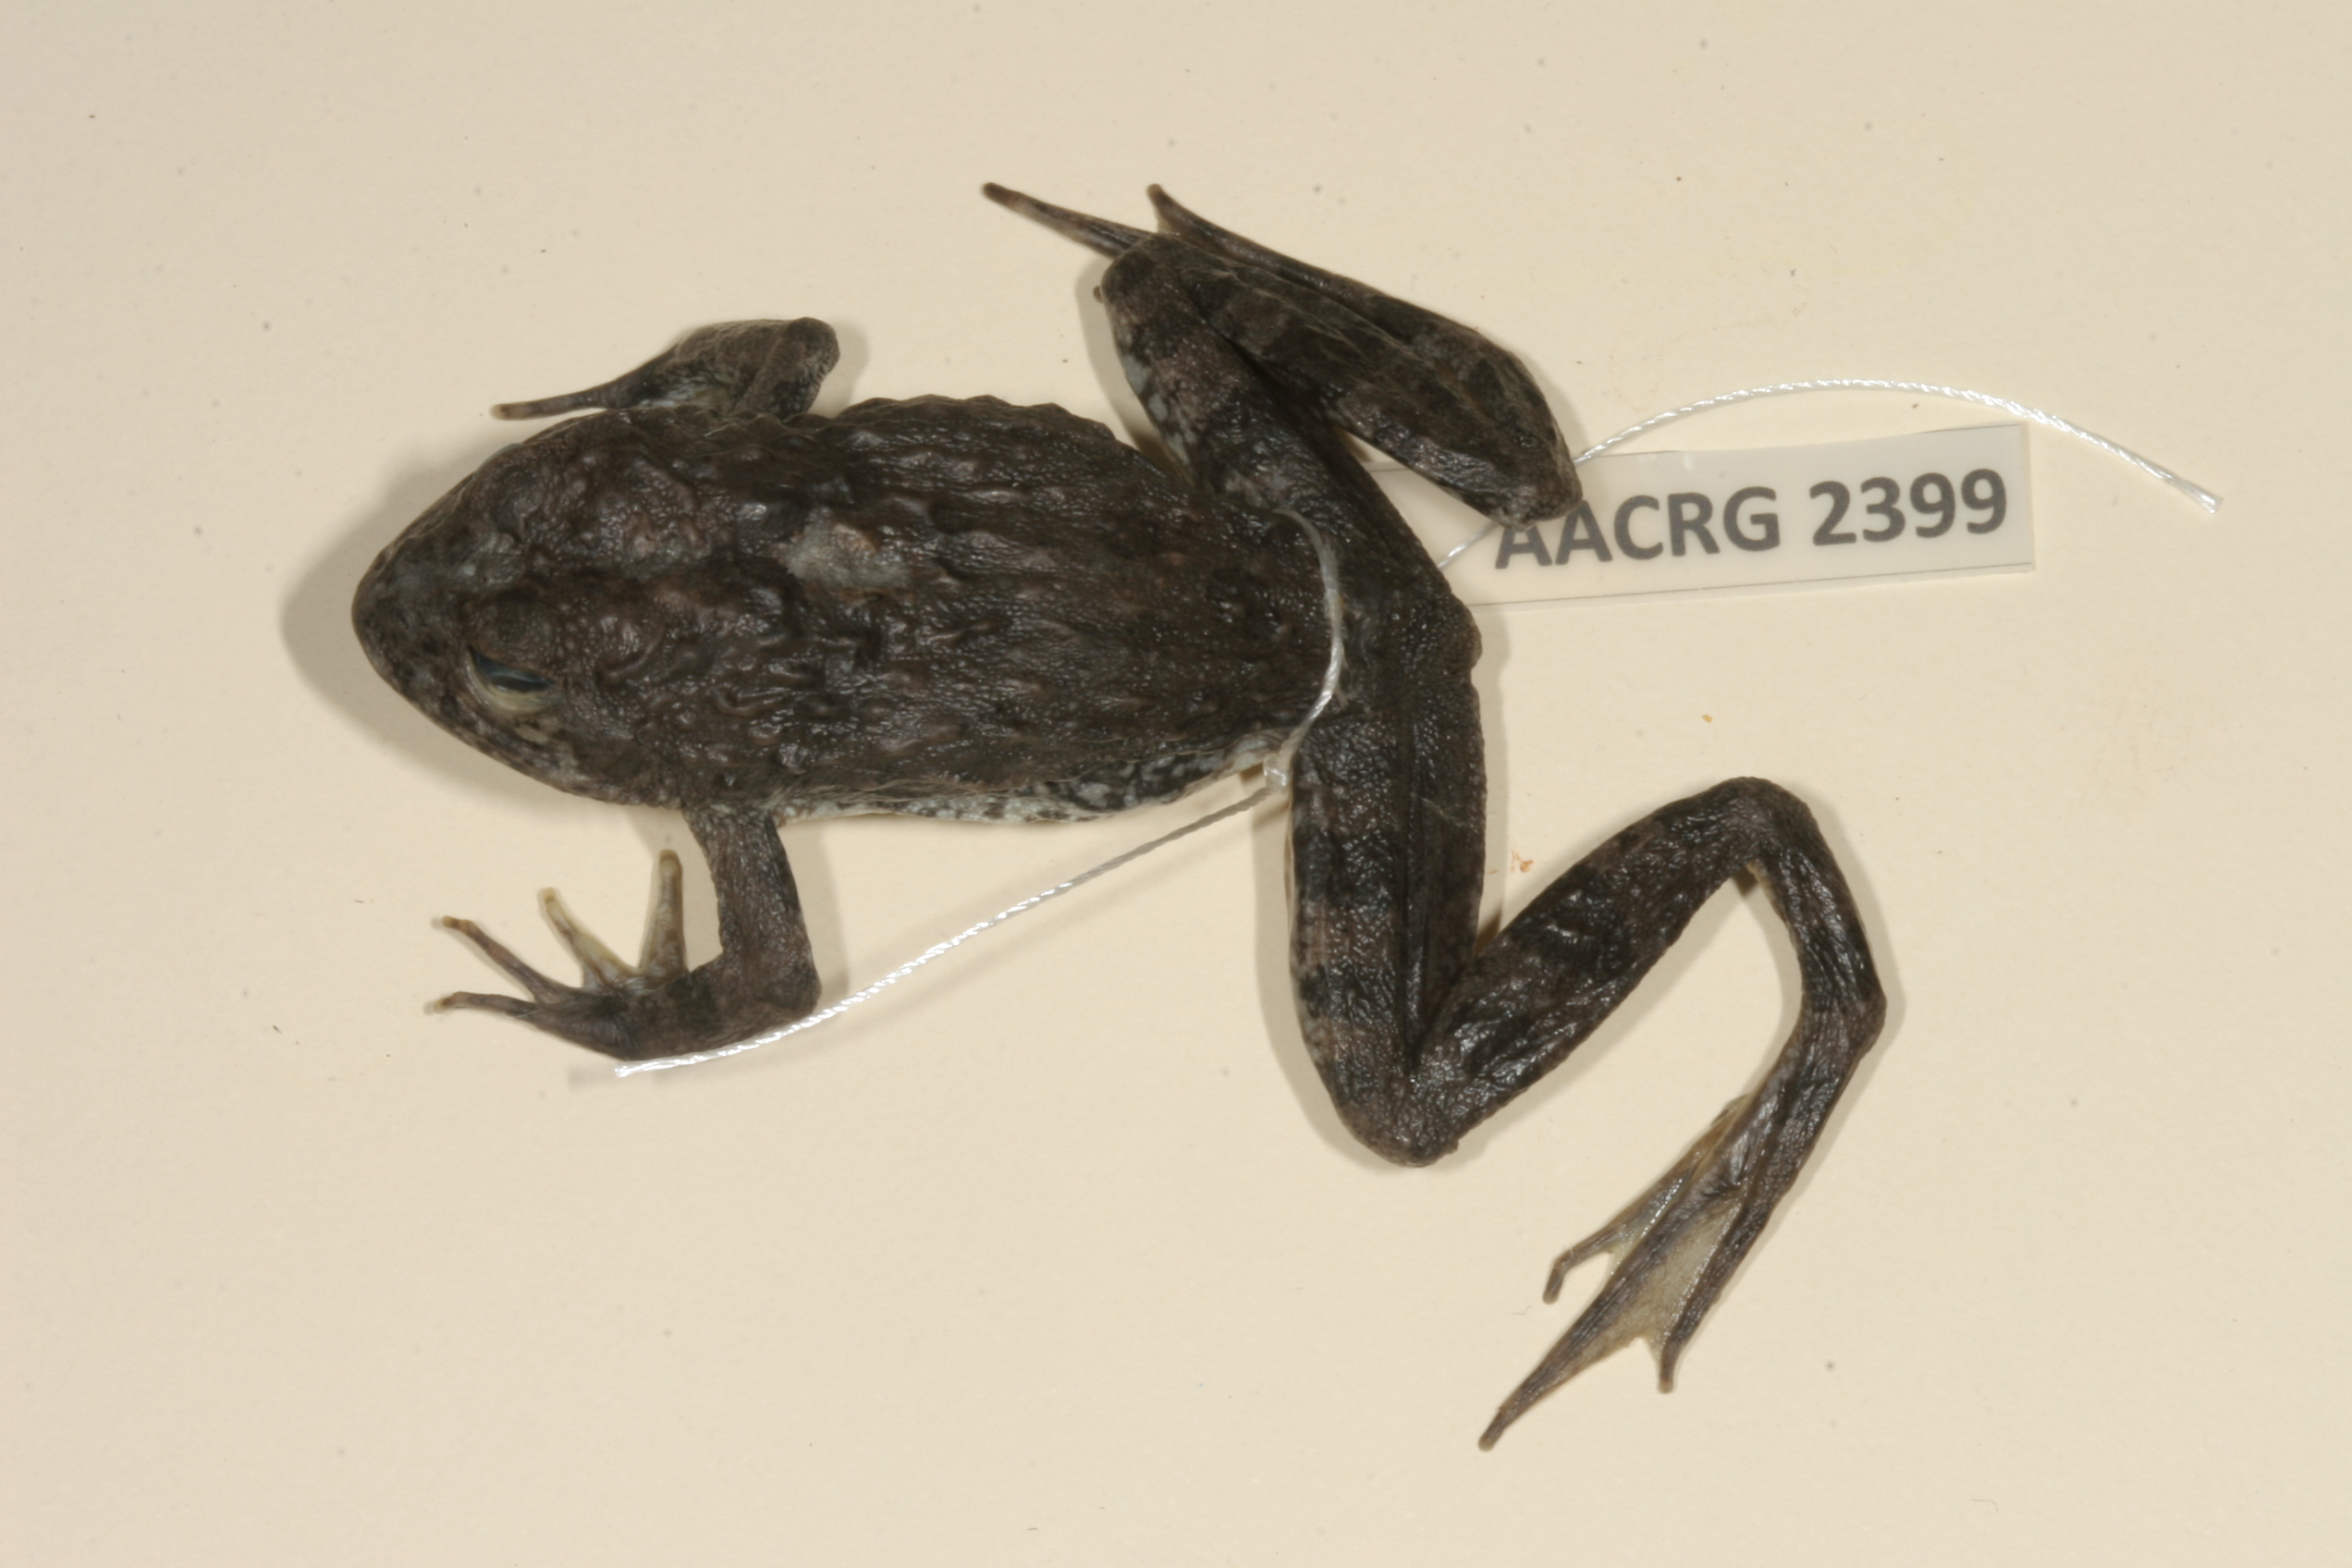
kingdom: Animalia
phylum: Chordata
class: Amphibia
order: Anura
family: Pyxicephalidae
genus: Amietia
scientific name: Amietia vertebralis
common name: Drakensberg stream frog
